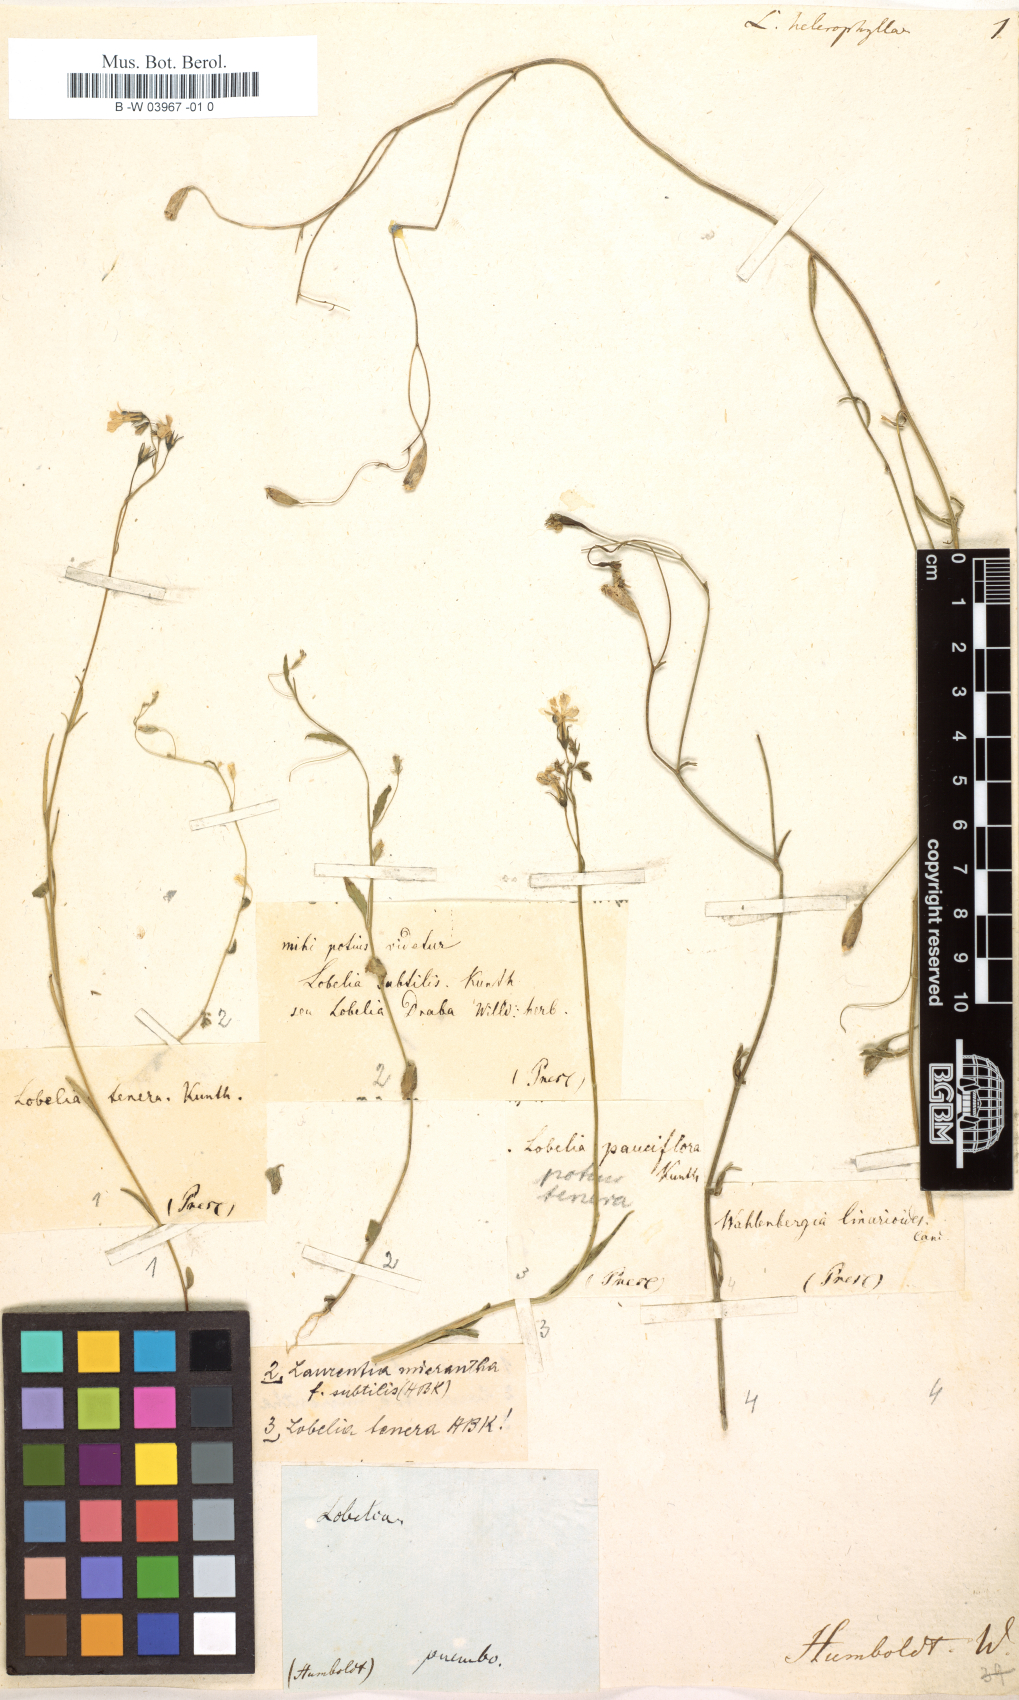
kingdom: Plantae
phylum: Tracheophyta
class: Magnoliopsida
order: Asterales
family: Campanulaceae
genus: Lobelia
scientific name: Lobelia heterophylla
